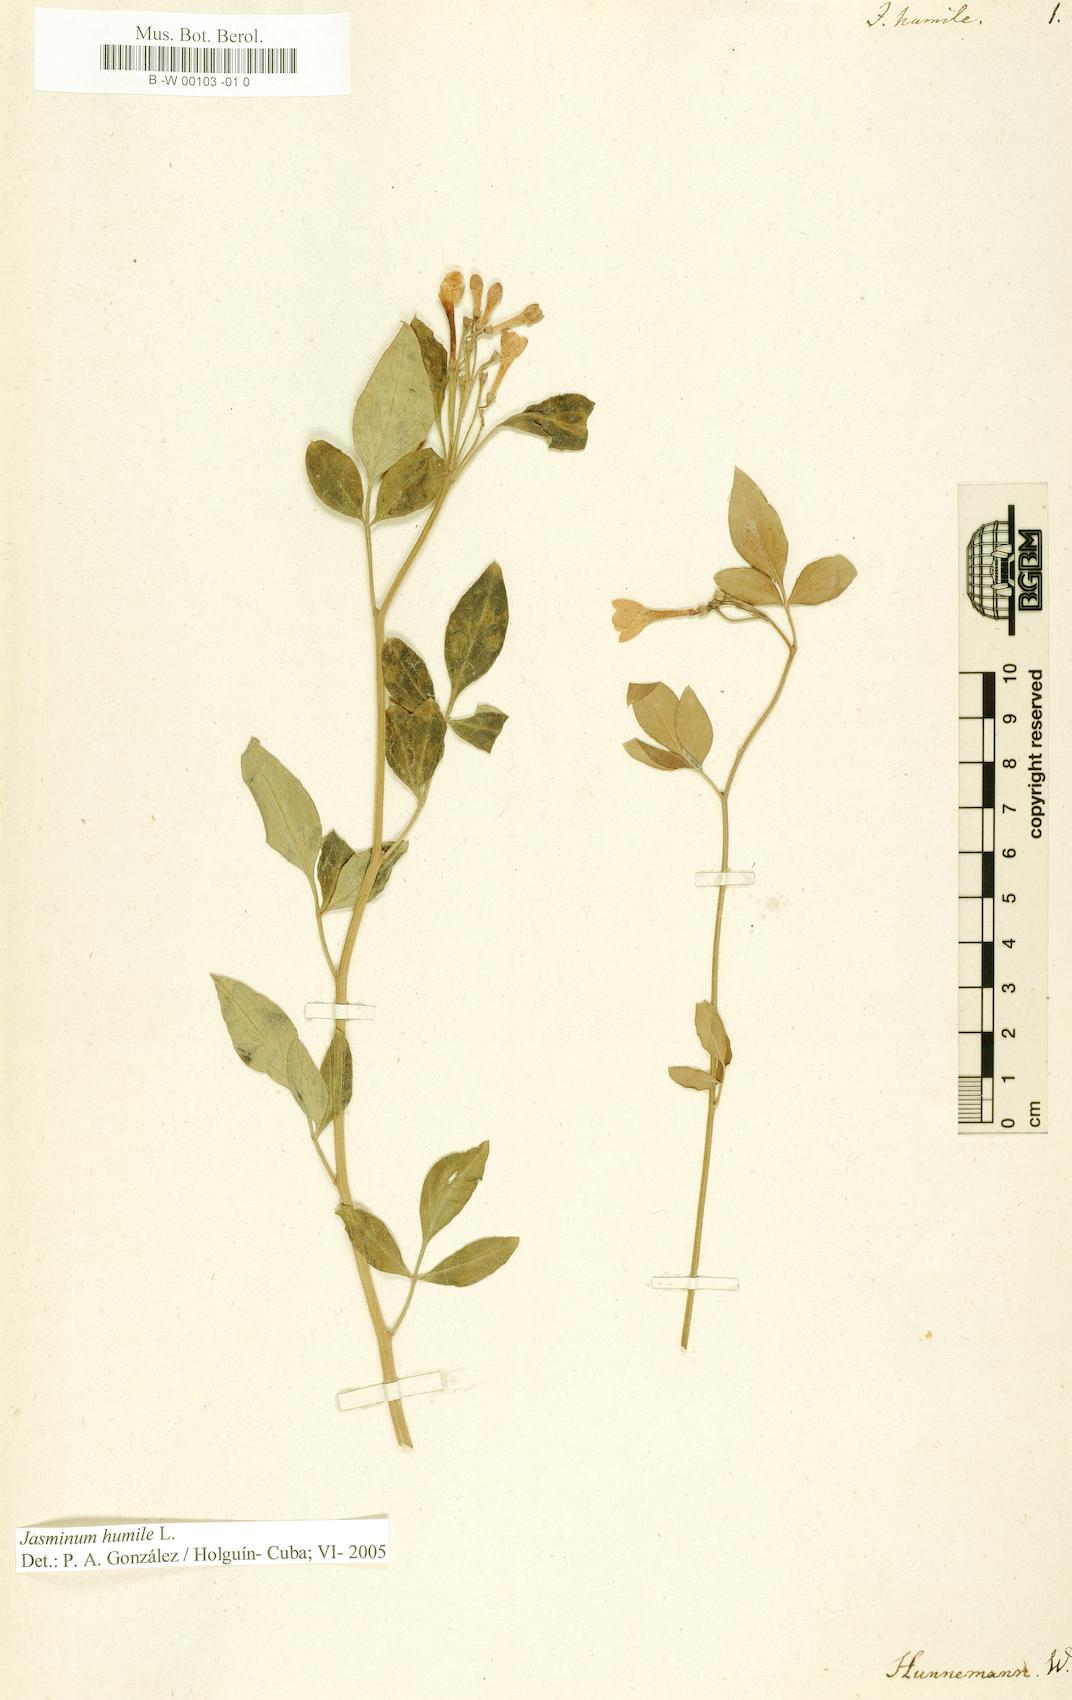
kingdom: Plantae
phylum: Tracheophyta
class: Magnoliopsida
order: Lamiales
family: Oleaceae
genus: Chrysojasminum
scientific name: Chrysojasminum humile
